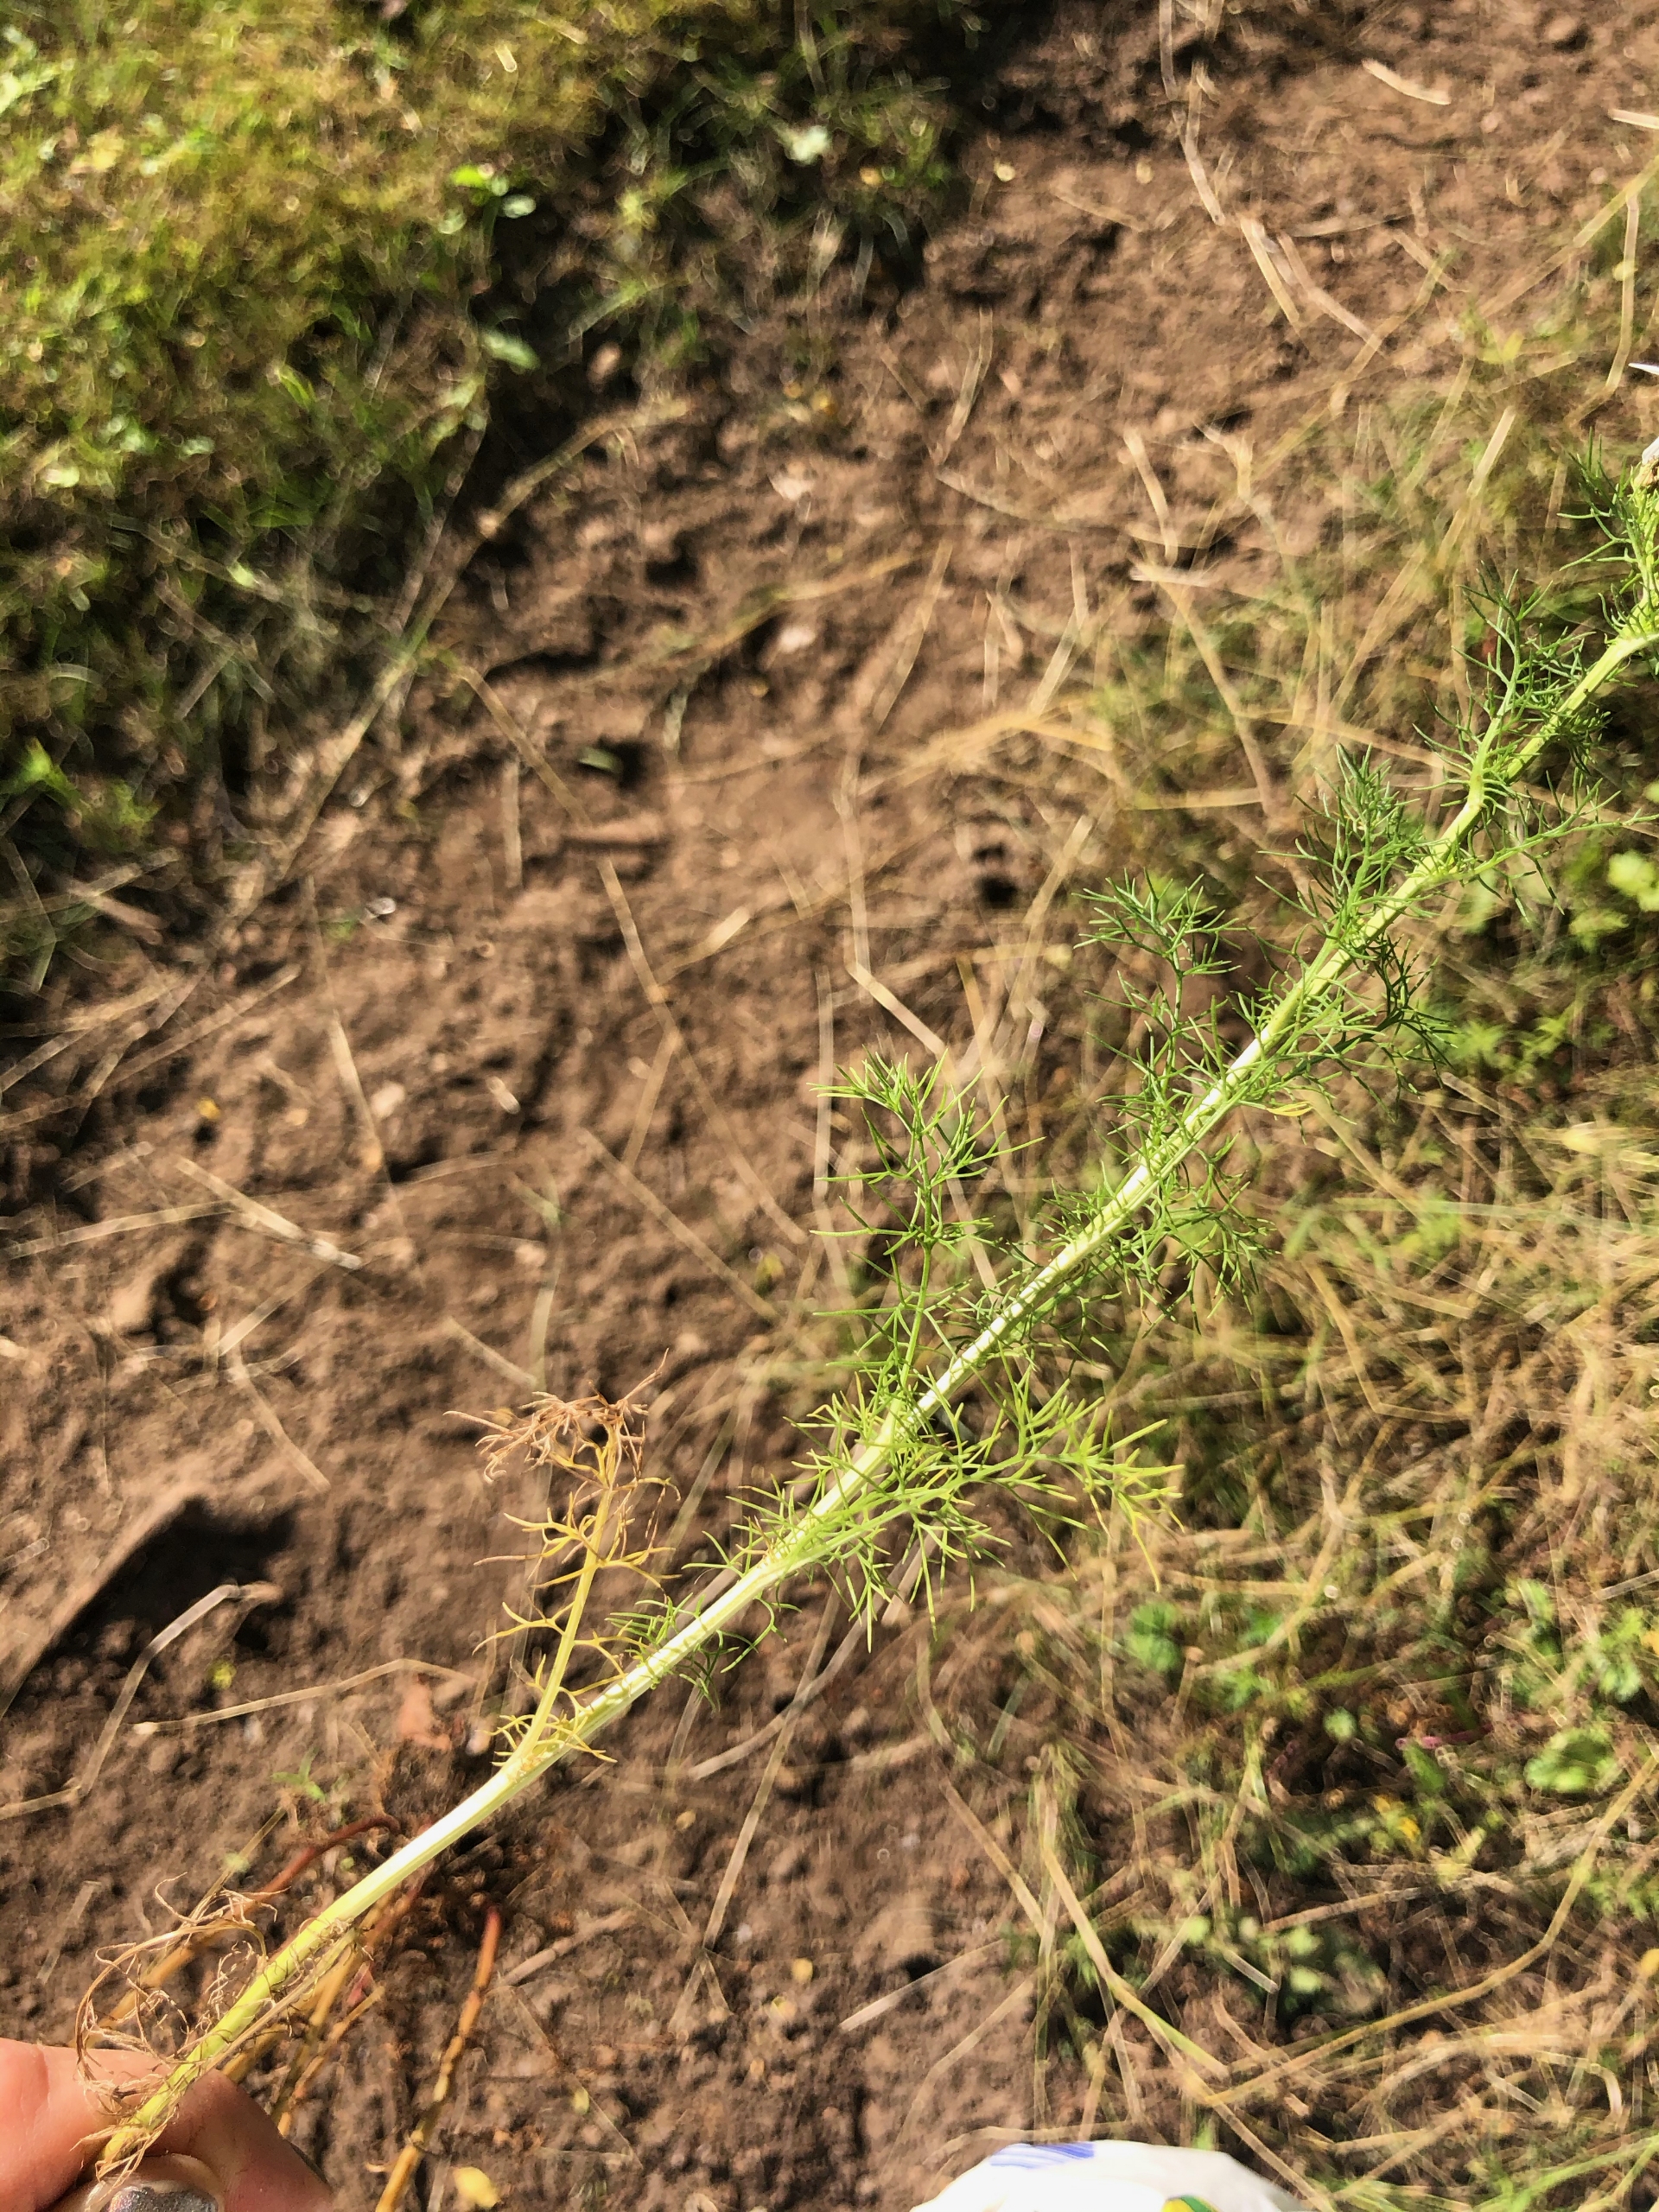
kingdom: Plantae
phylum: Tracheophyta
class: Magnoliopsida
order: Asterales
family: Asteraceae
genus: Tripleurospermum
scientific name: Tripleurospermum inodorum
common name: Lugtløs kamille
